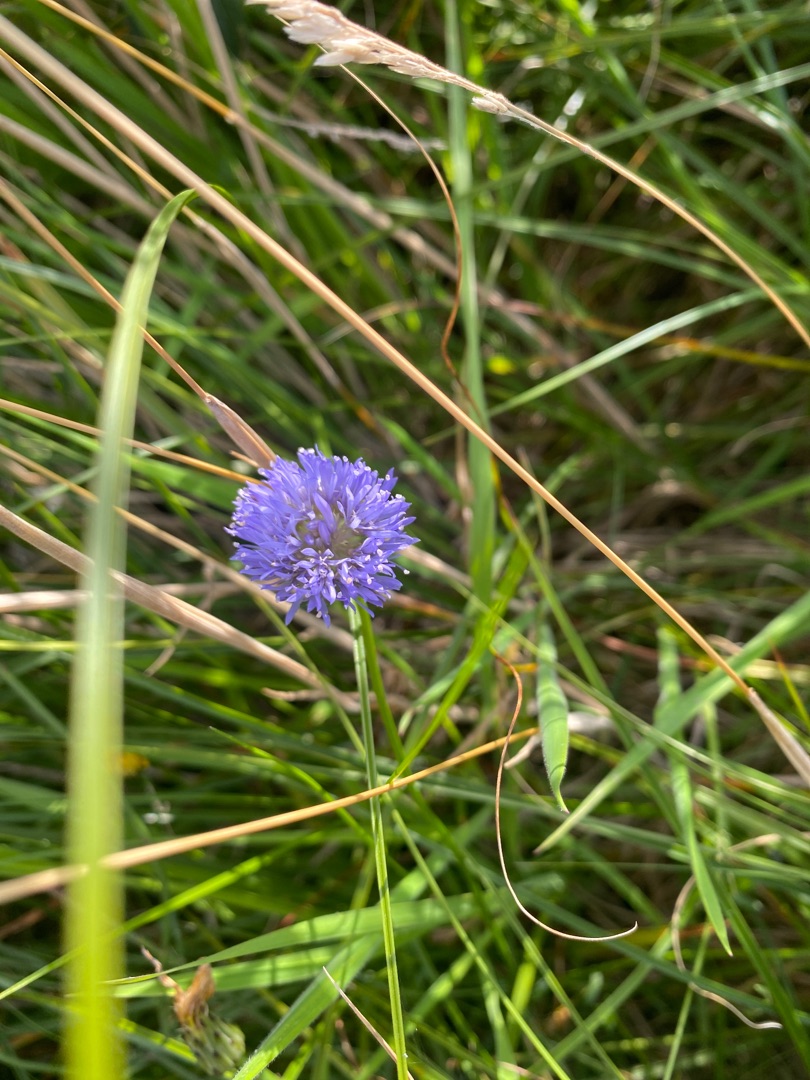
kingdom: Plantae
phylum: Tracheophyta
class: Magnoliopsida
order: Asterales
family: Campanulaceae
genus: Jasione
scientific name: Jasione montana
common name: Blåmunke
